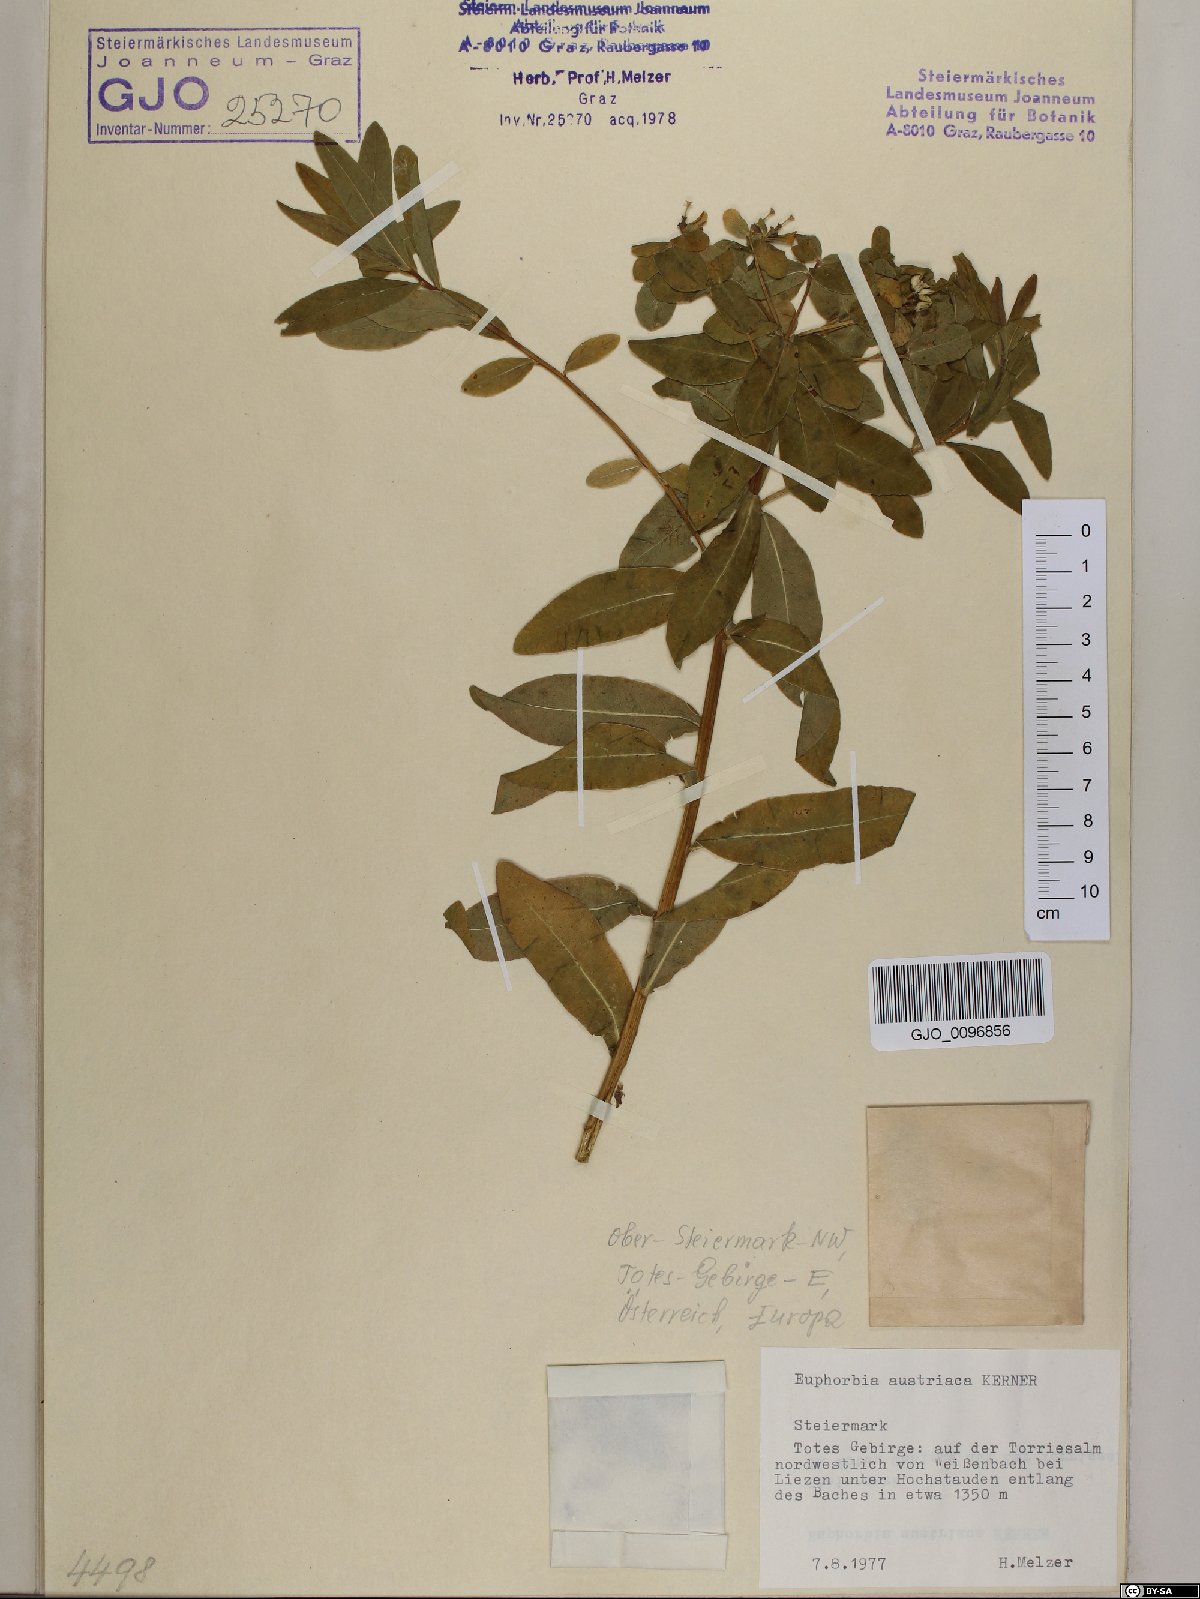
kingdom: Plantae
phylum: Tracheophyta
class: Magnoliopsida
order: Malpighiales
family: Euphorbiaceae
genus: Euphorbia
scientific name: Euphorbia austriaca
